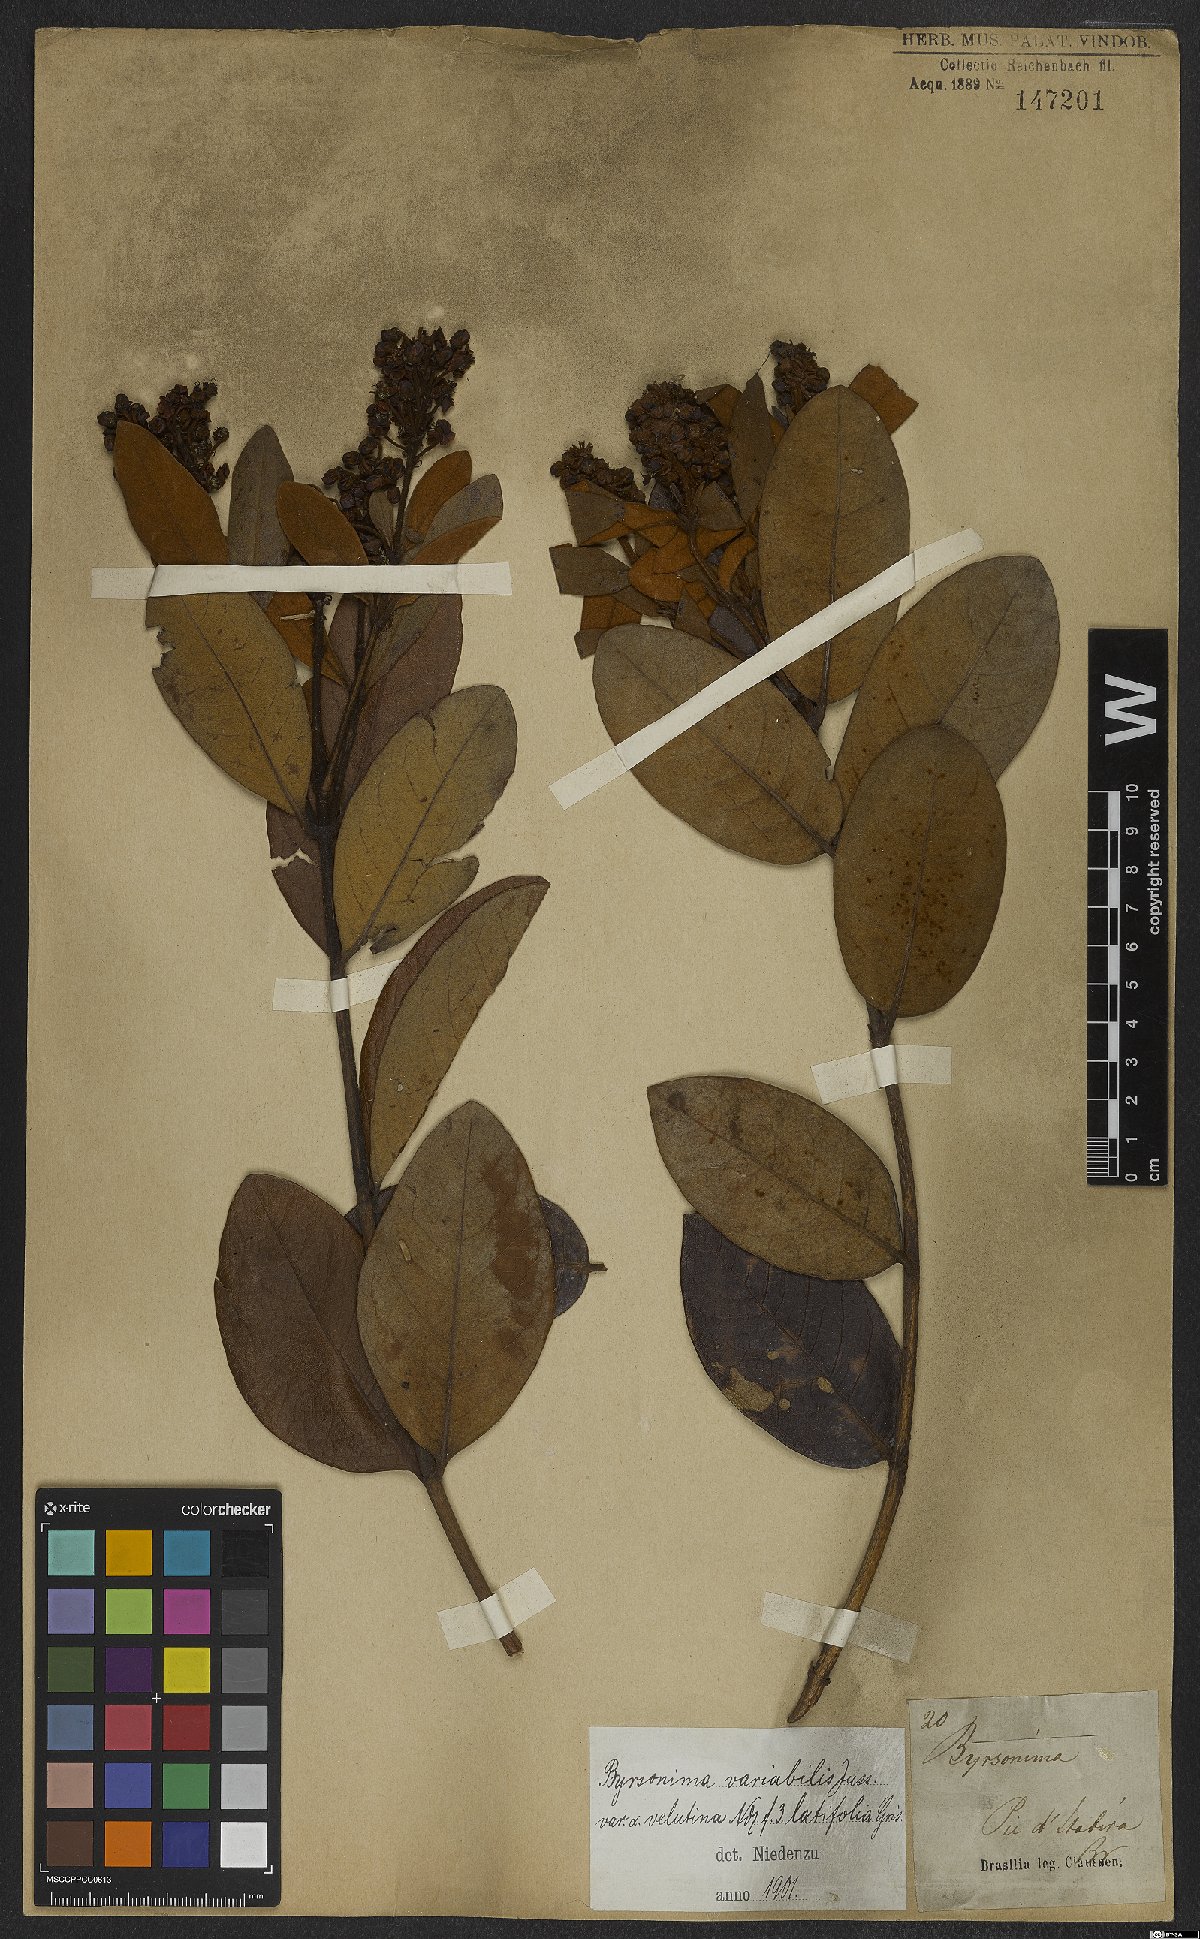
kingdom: Plantae
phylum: Tracheophyta
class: Magnoliopsida
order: Malpighiales
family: Malpighiaceae
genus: Byrsonima
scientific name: Byrsonima variabilis
